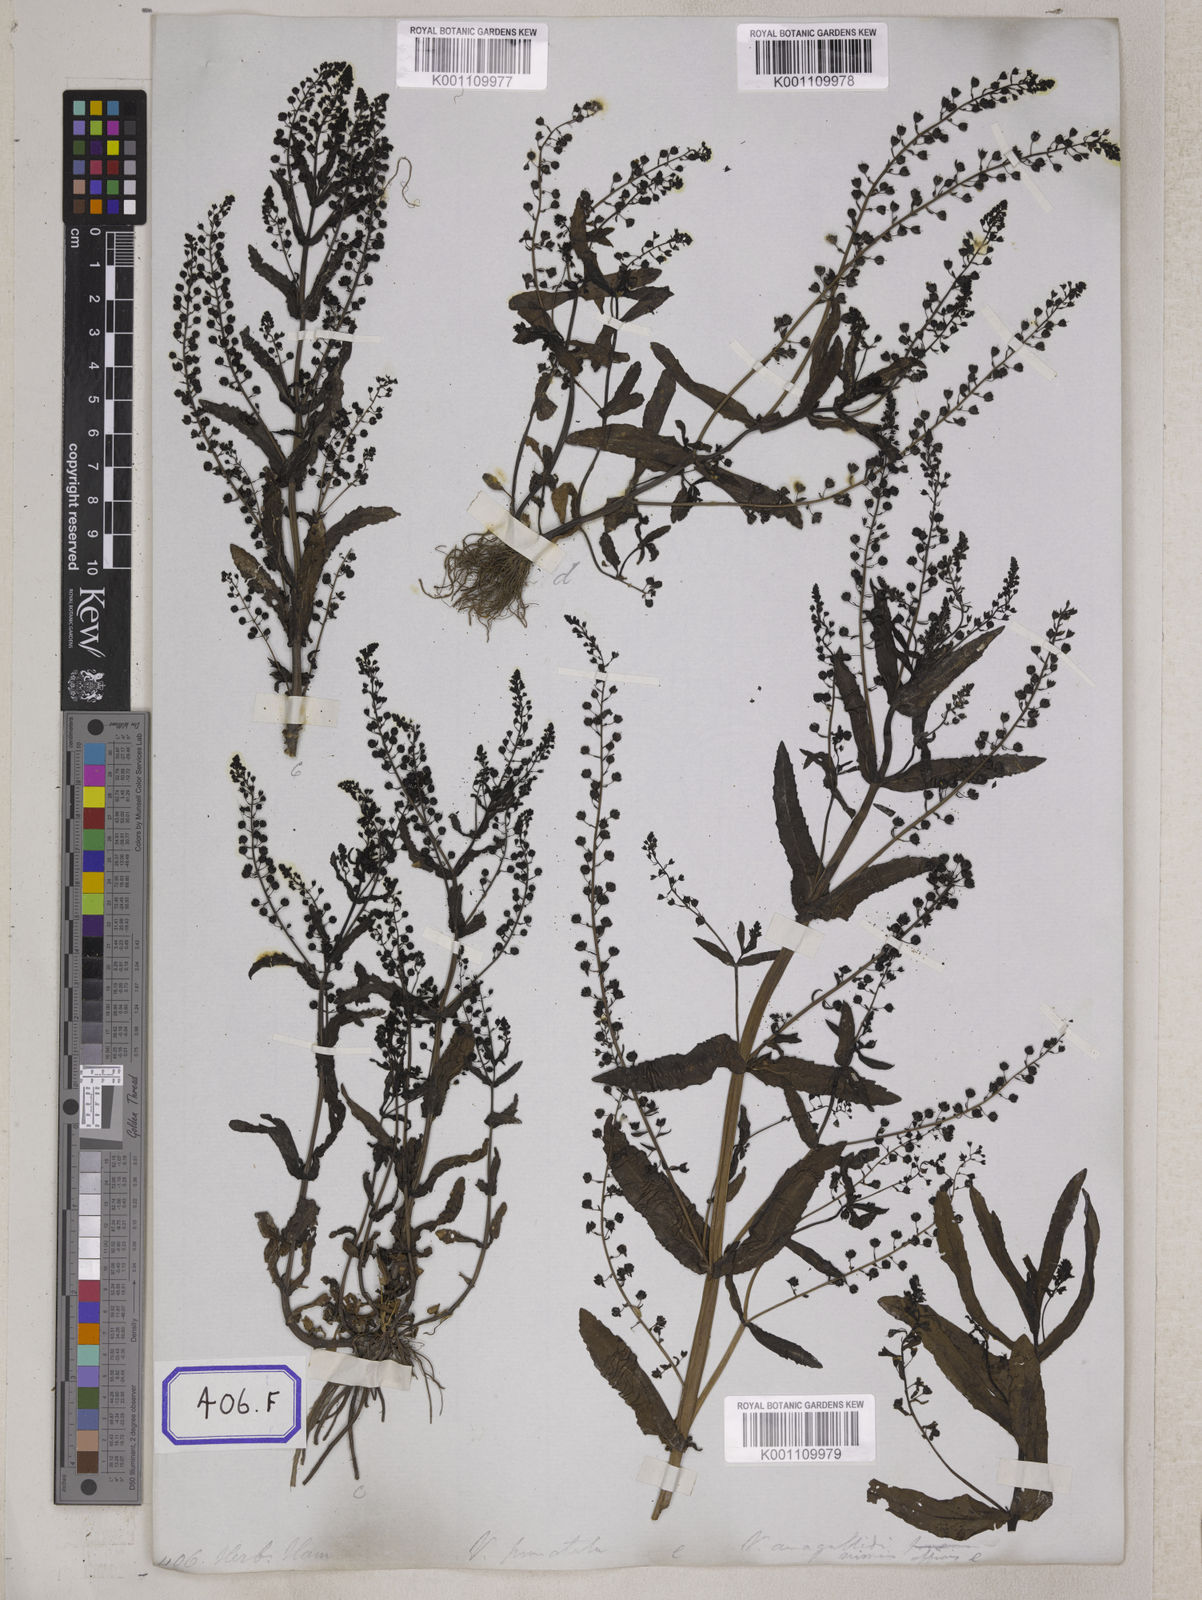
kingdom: Plantae
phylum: Tracheophyta
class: Magnoliopsida
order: Lamiales
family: Plantaginaceae
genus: Veronica
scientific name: Veronica undulata
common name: Undulate speedwell
